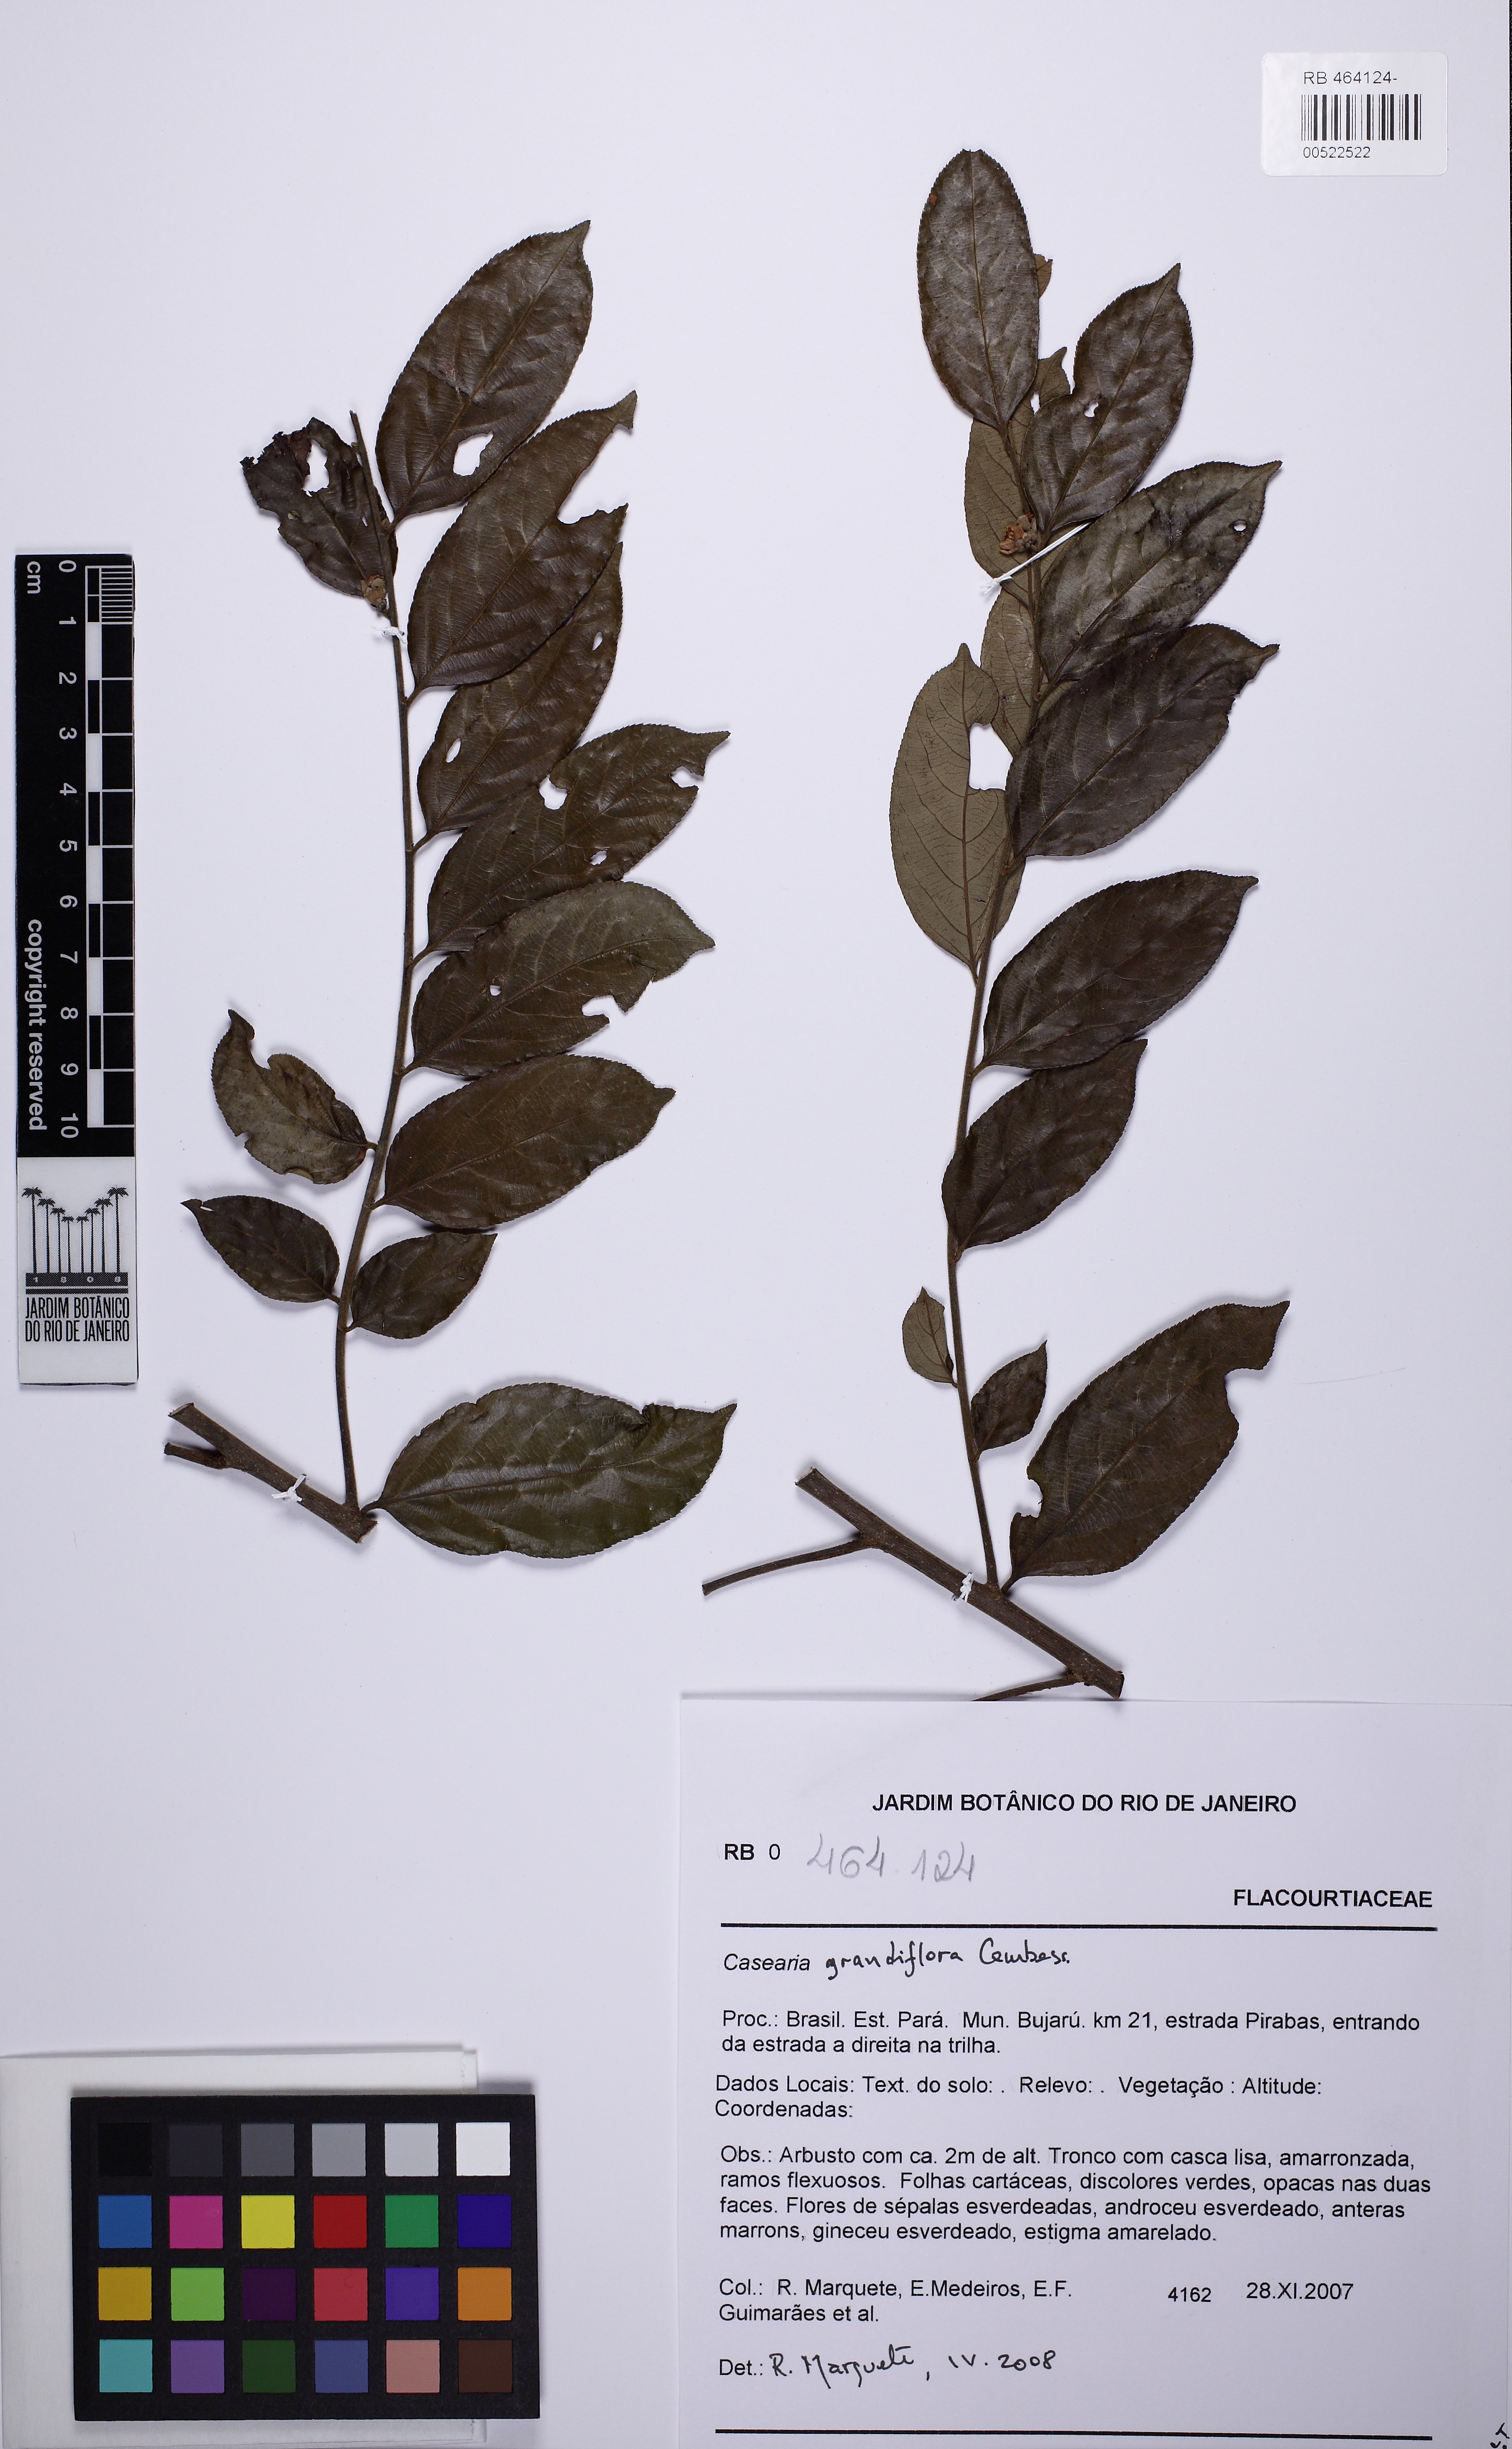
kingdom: Plantae
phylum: Tracheophyta
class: Magnoliopsida
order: Malpighiales
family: Salicaceae
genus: Casearia
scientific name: Casearia grandiflora
